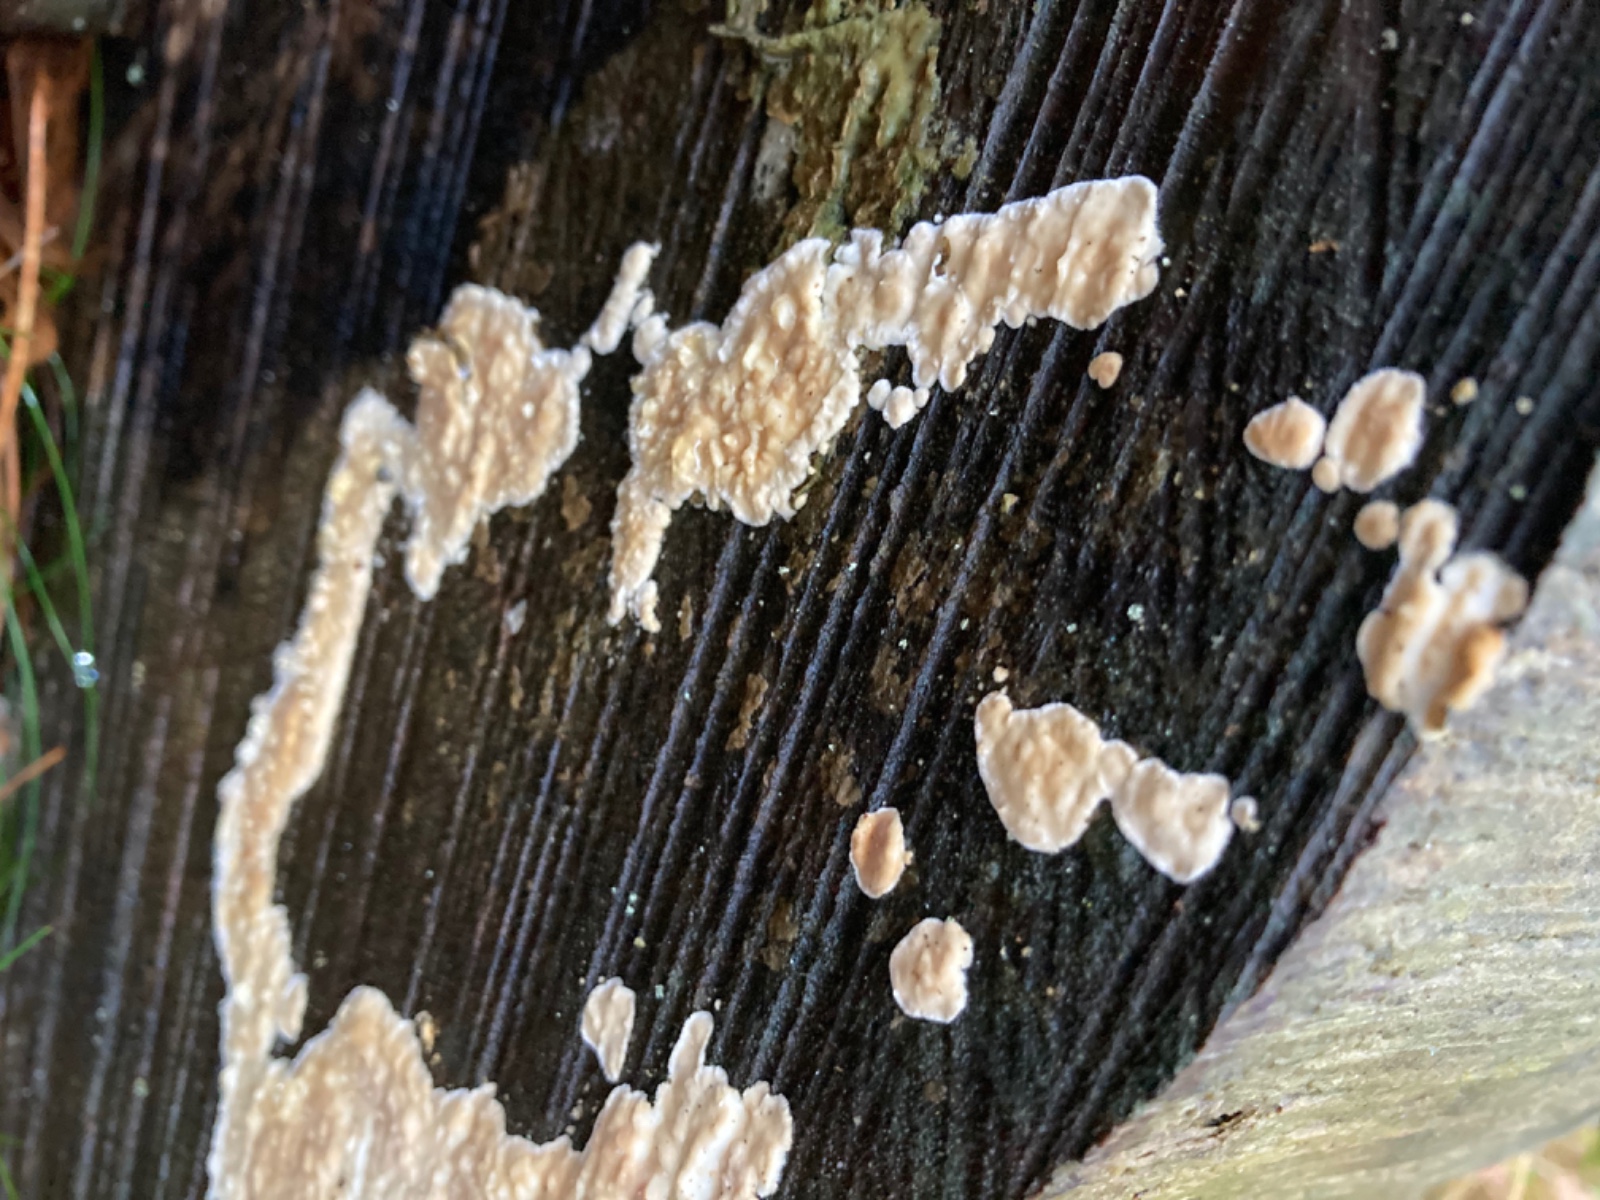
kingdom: Fungi
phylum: Basidiomycota
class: Agaricomycetes
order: Agaricales
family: Physalacriaceae
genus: Cylindrobasidium
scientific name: Cylindrobasidium evolvens
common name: sprækkehinde
